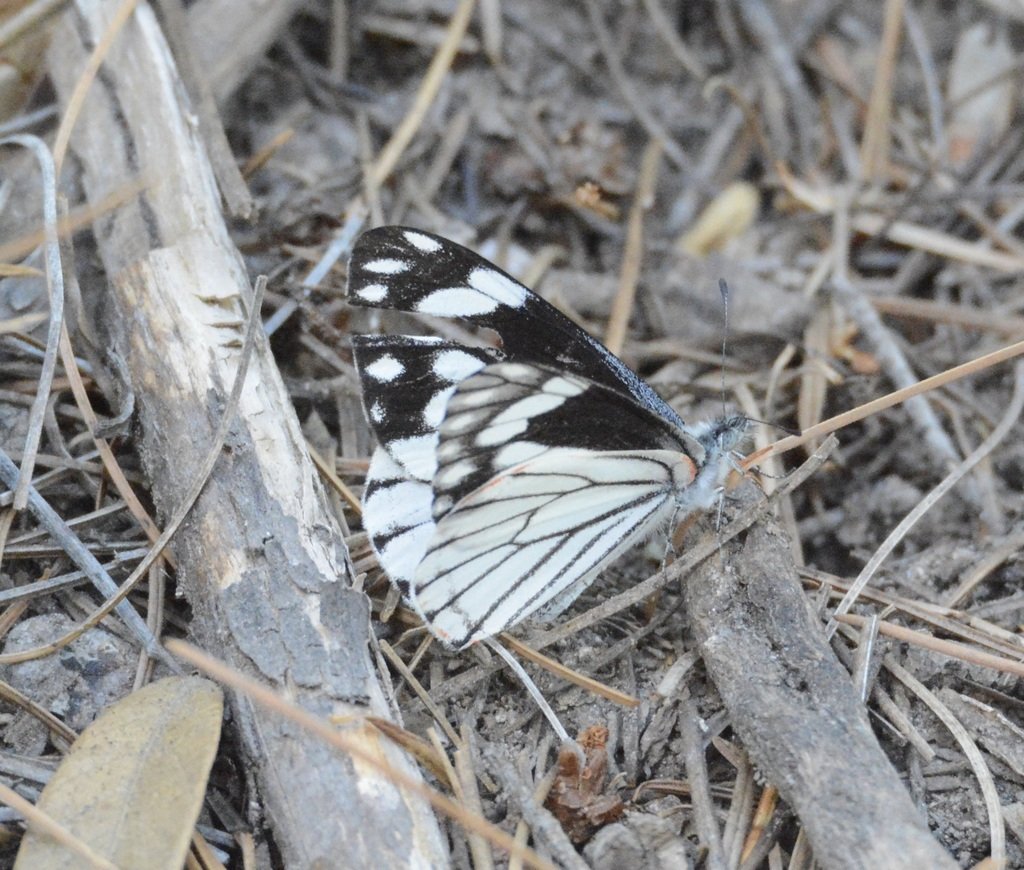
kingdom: Animalia
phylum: Arthropoda
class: Insecta
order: Lepidoptera
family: Pieridae
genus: Neophasia
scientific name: Neophasia terlooii
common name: Chiricahua White
